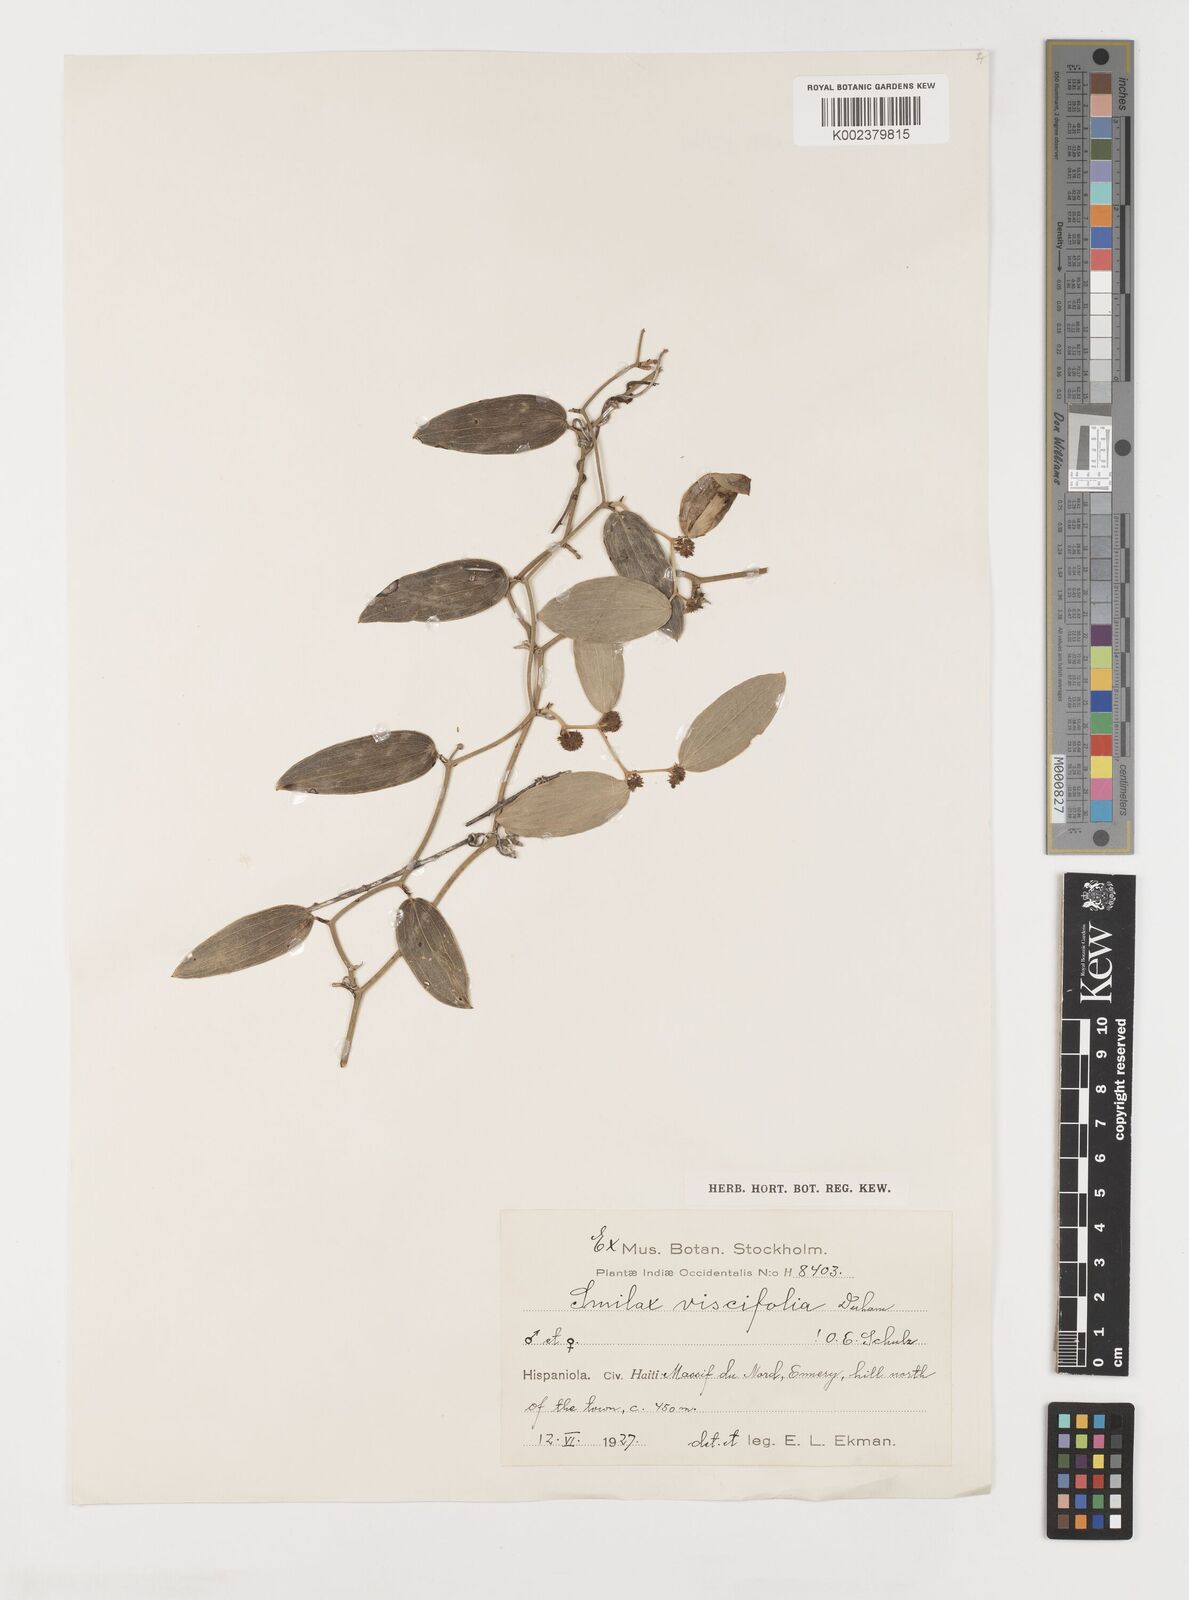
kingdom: Plantae
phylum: Tracheophyta
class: Liliopsida
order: Liliales
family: Smilacaceae
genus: Smilax
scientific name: Smilax oblongata
